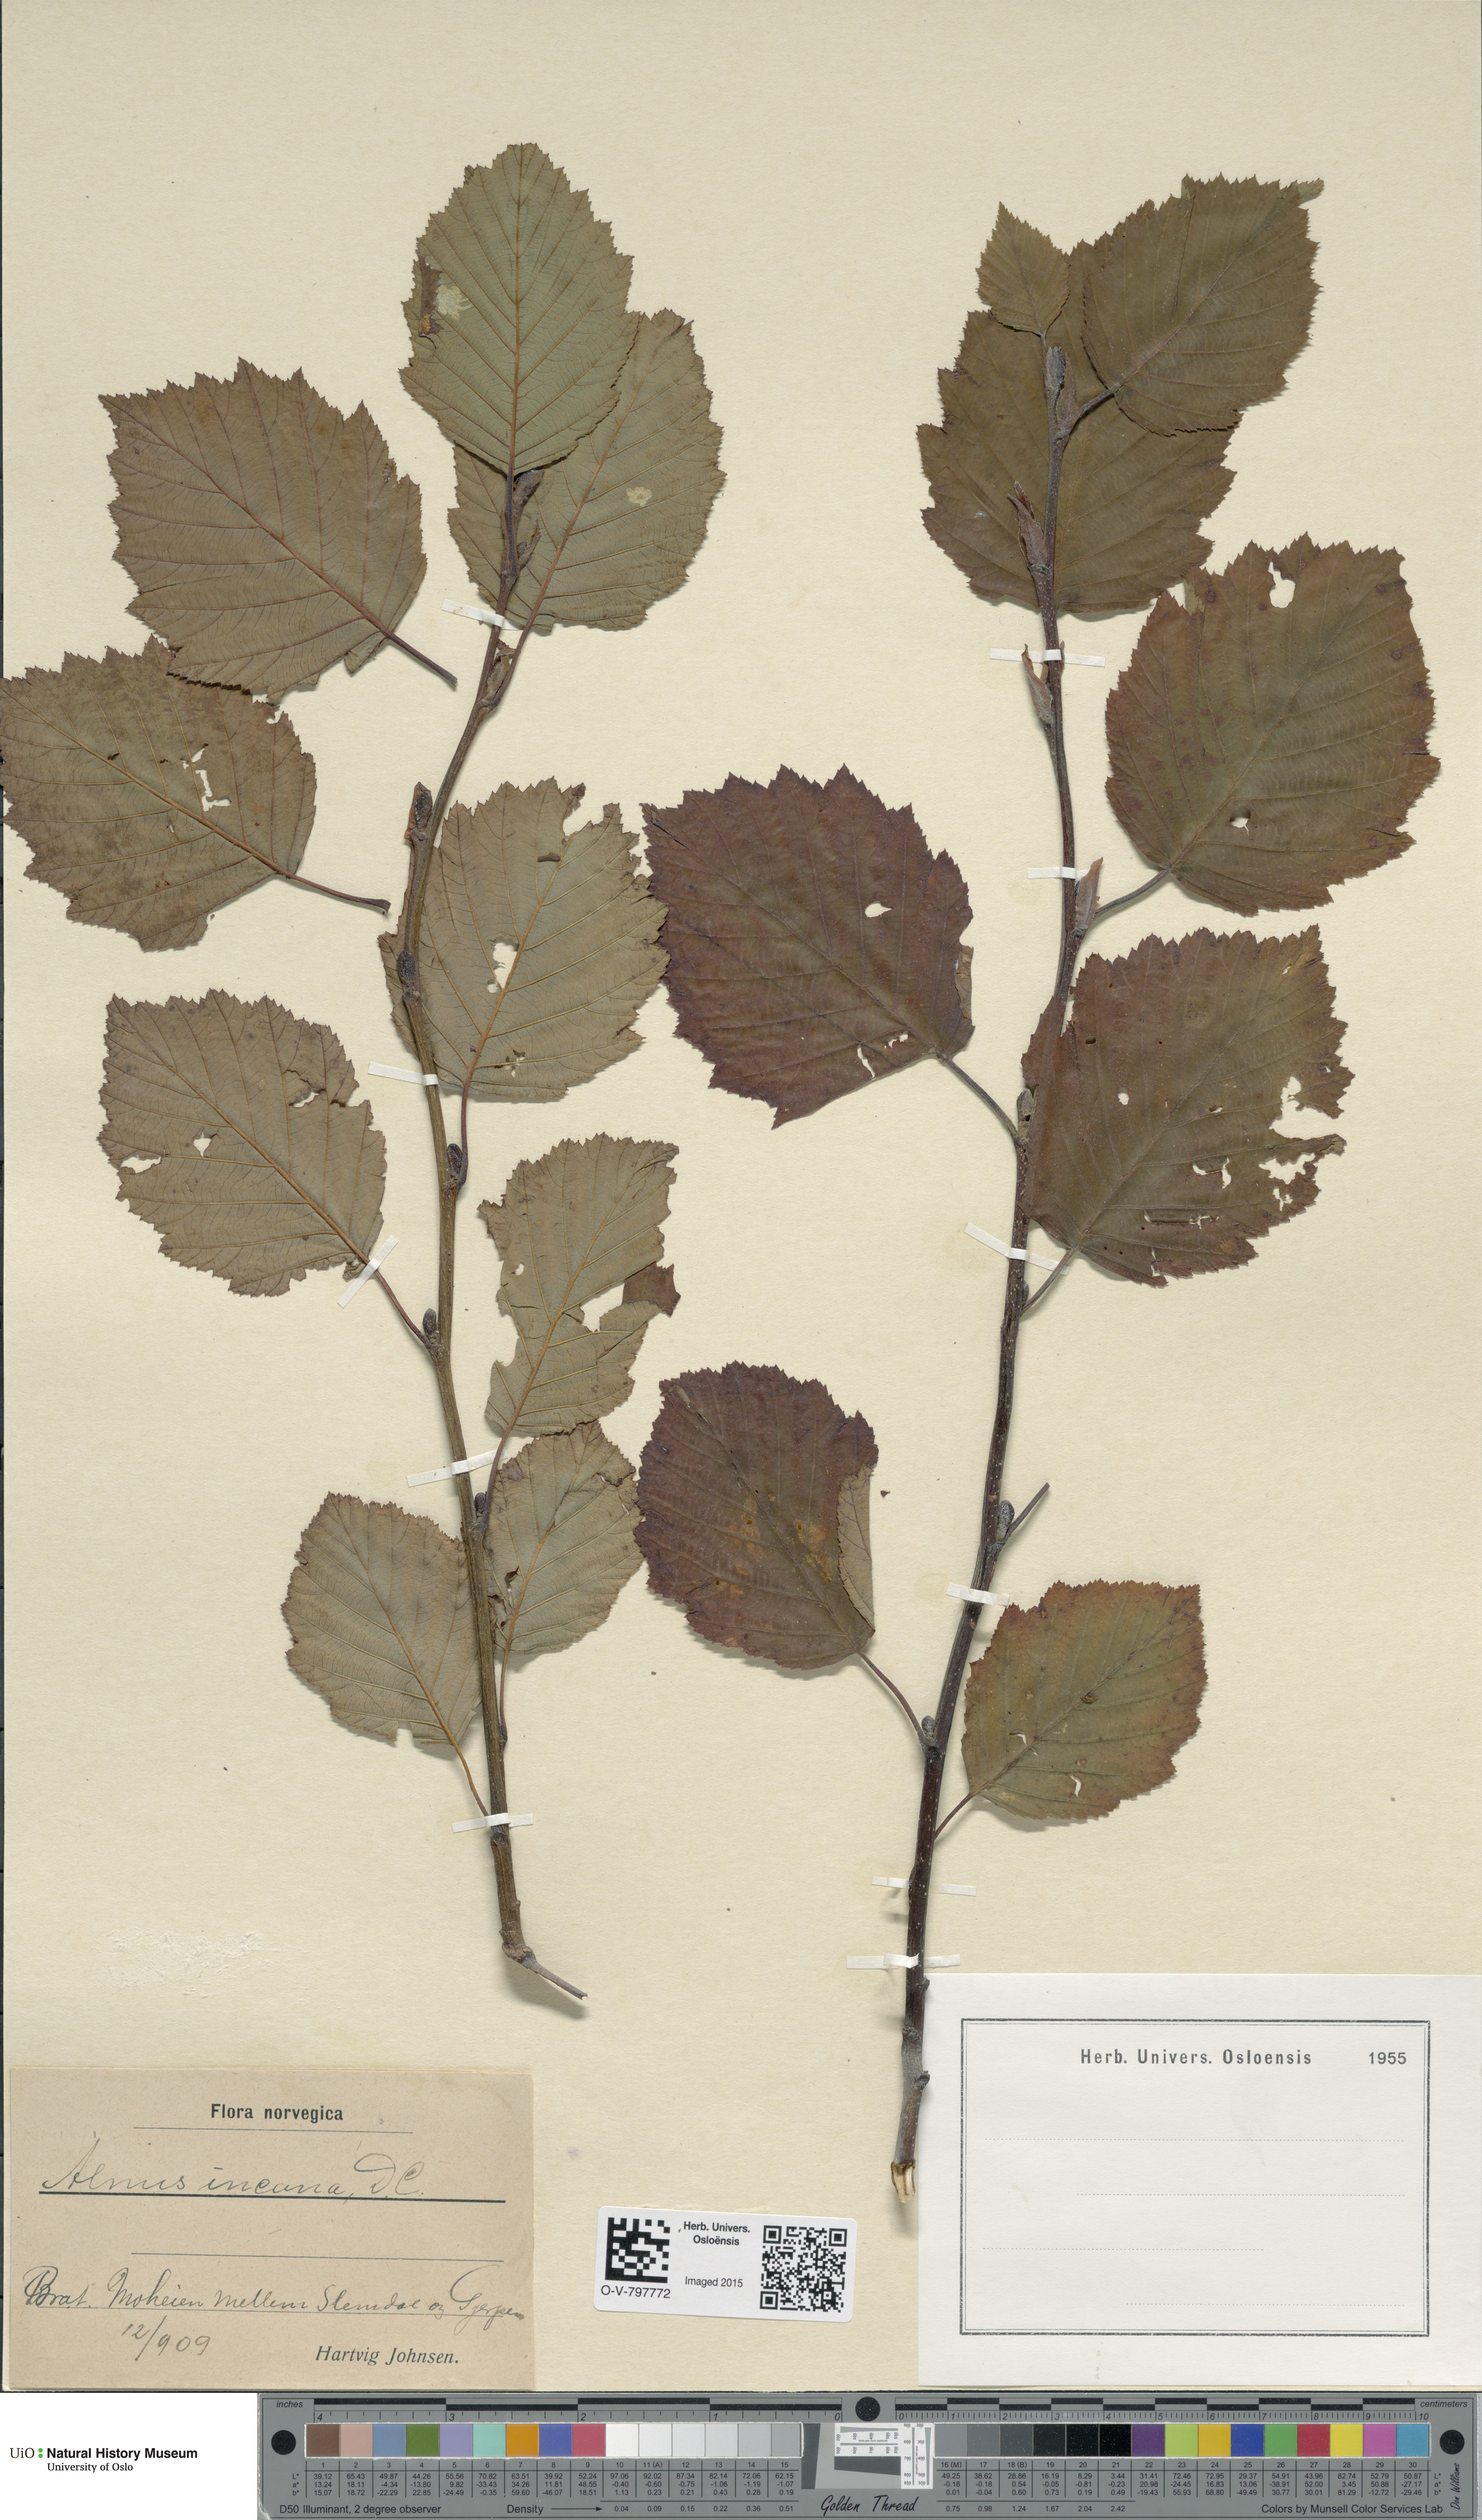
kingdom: Plantae
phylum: Tracheophyta
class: Magnoliopsida
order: Fagales
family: Betulaceae
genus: Alnus
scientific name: Alnus incana
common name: Grey alder
